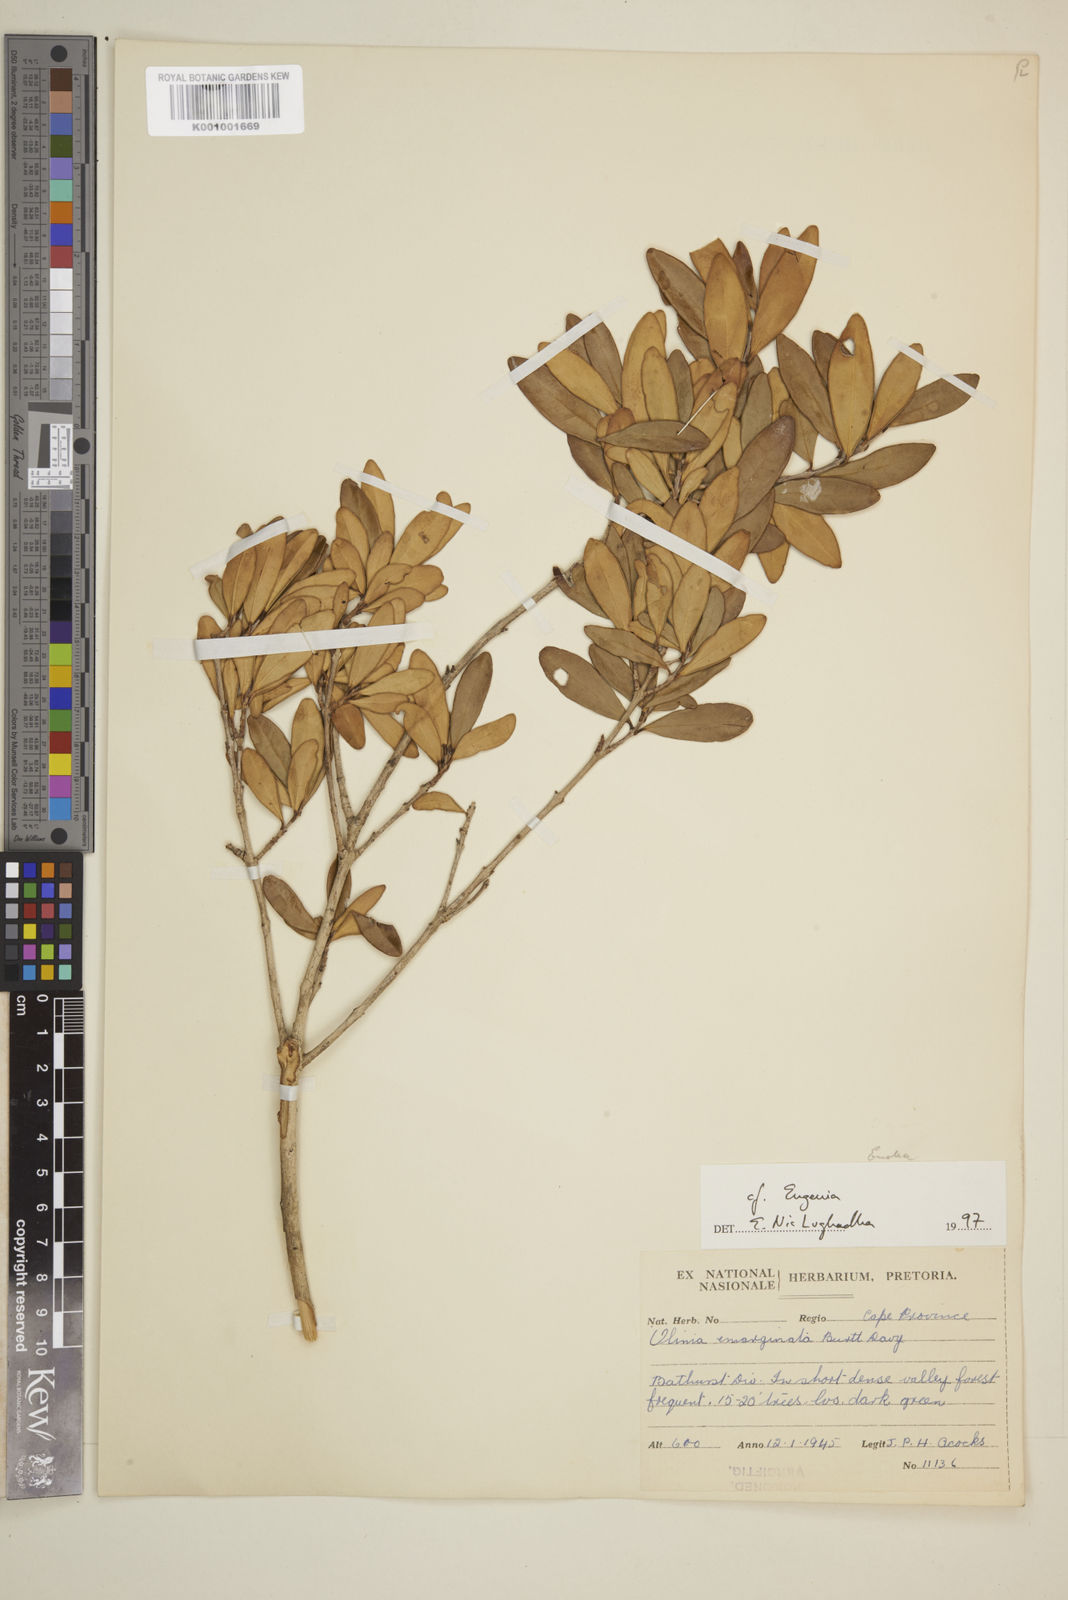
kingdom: Plantae
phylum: Tracheophyta
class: Magnoliopsida
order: Myrtales
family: Myrtaceae
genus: Eugenia
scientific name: Eugenia
